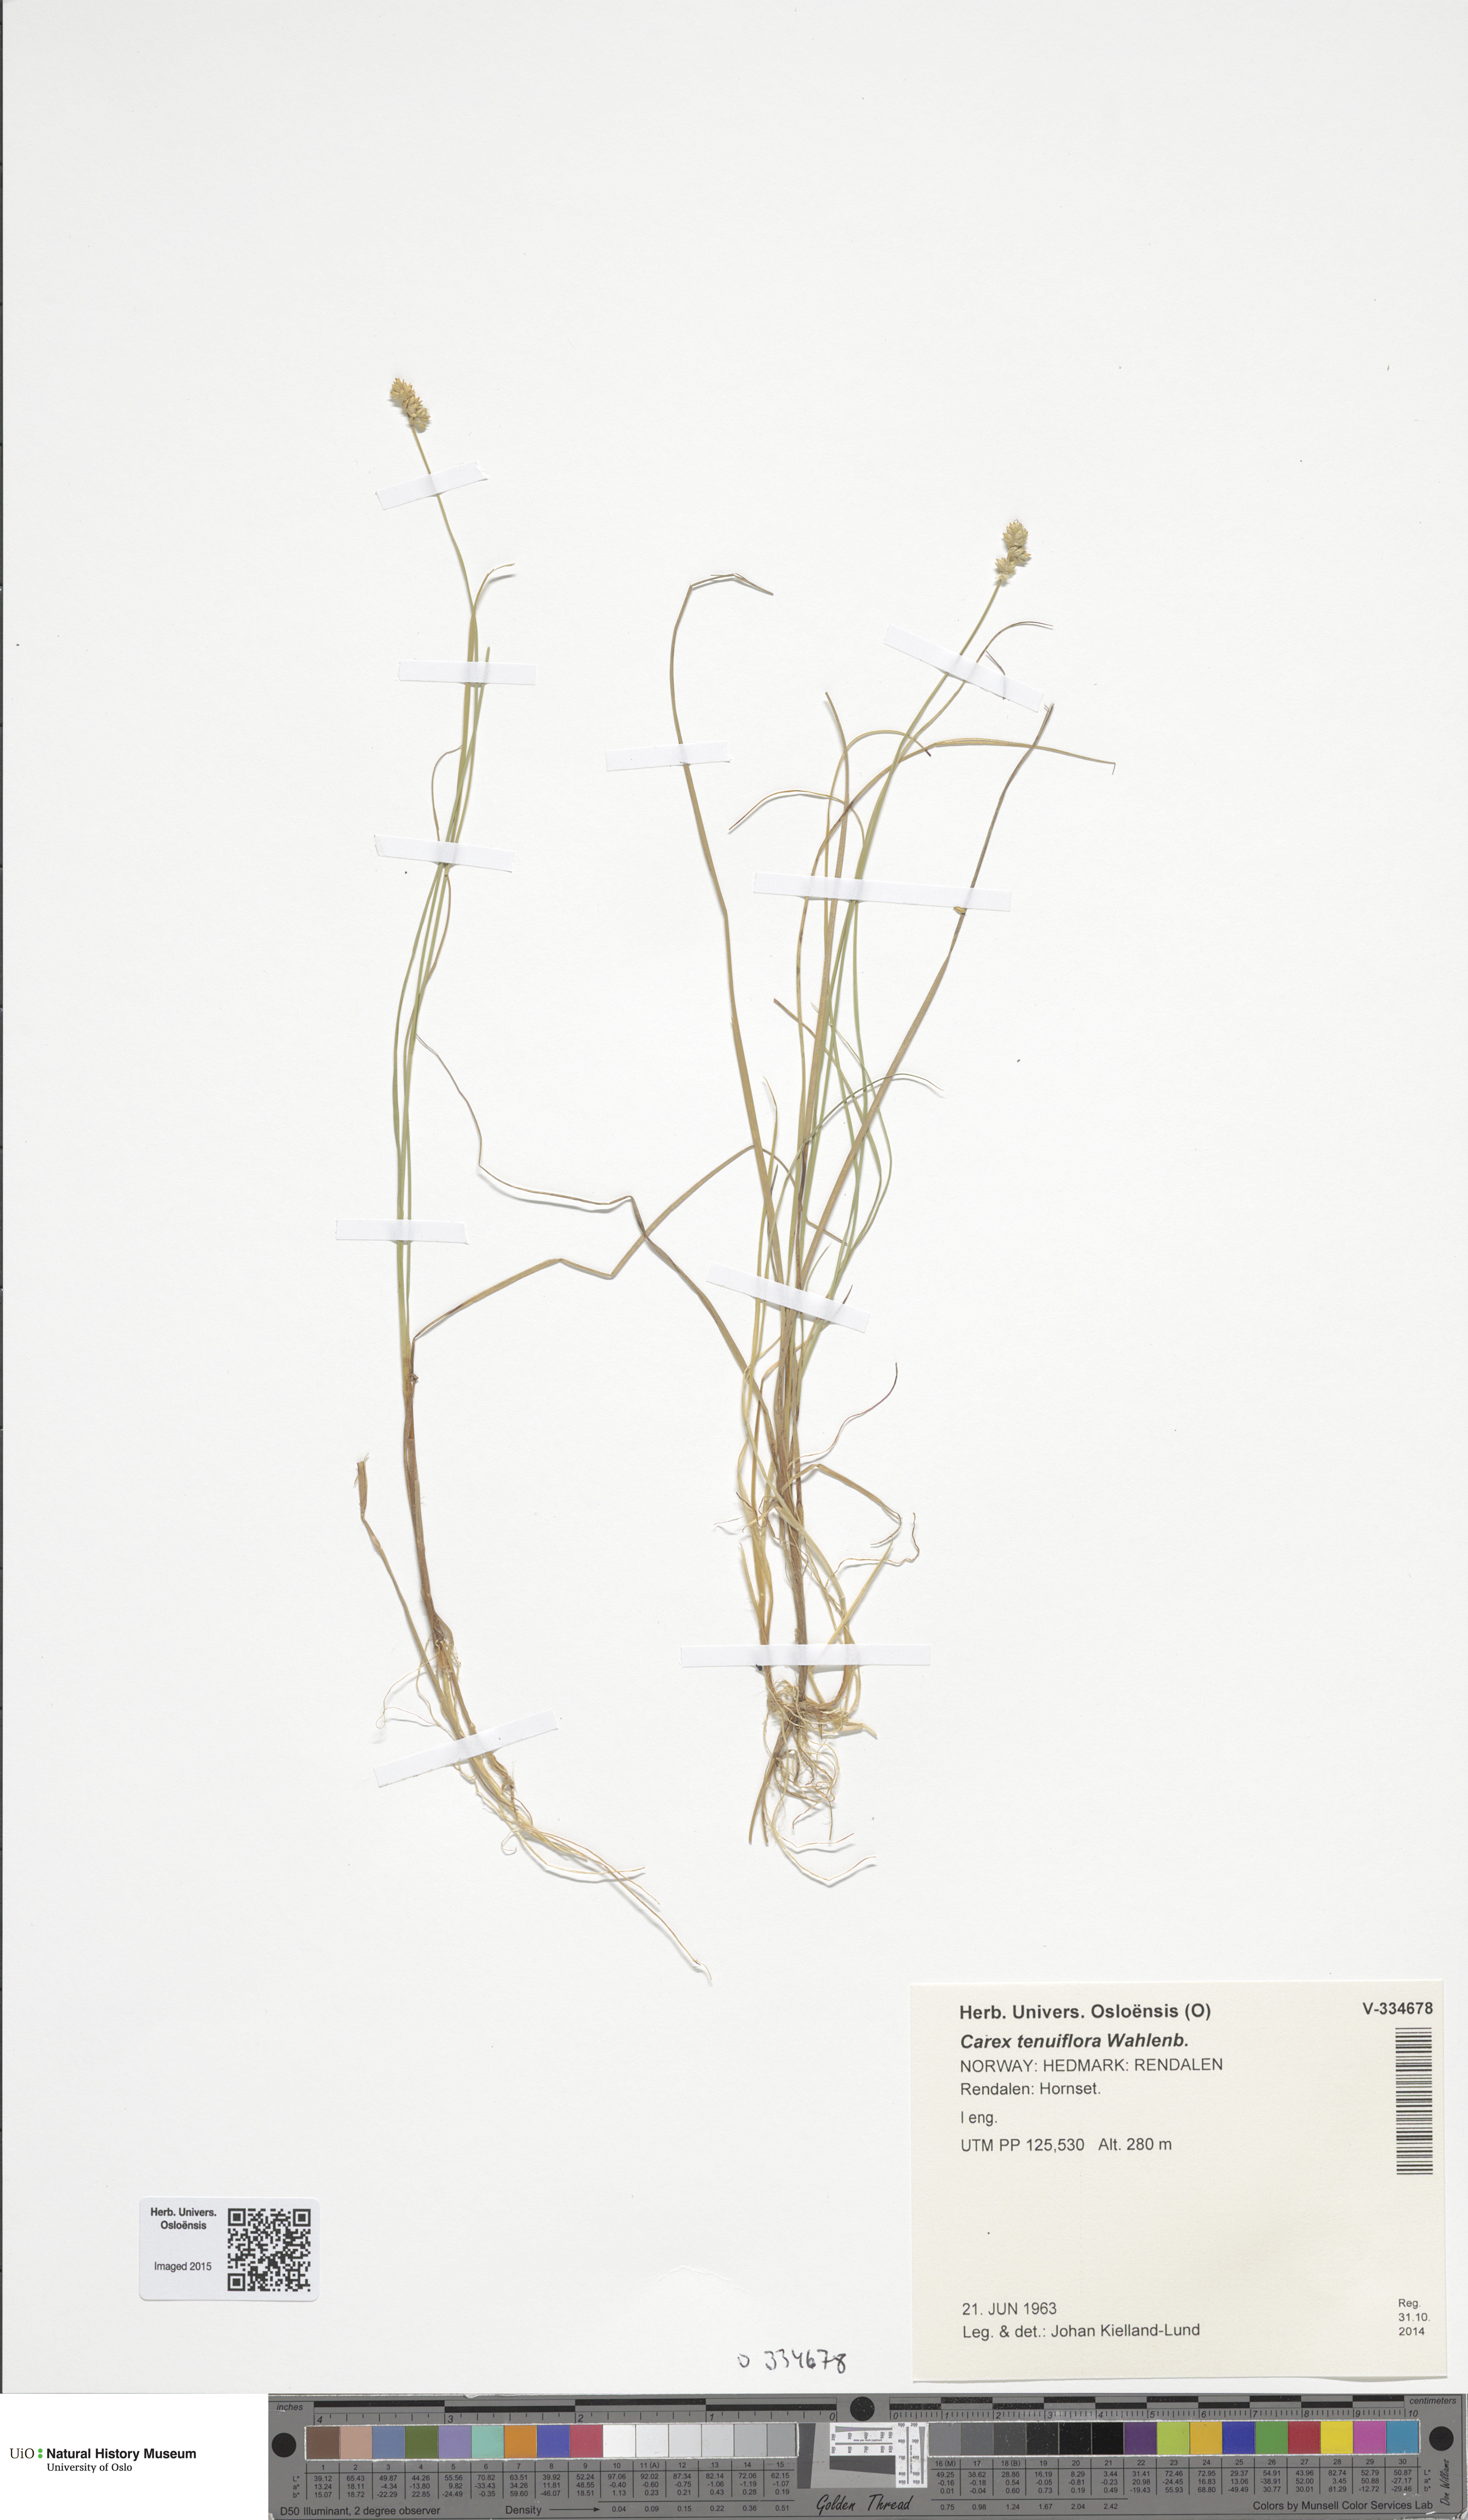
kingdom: Plantae
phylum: Tracheophyta
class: Liliopsida
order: Poales
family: Cyperaceae
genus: Carex
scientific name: Carex tenuiflora
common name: Sparse-flowered sedge
